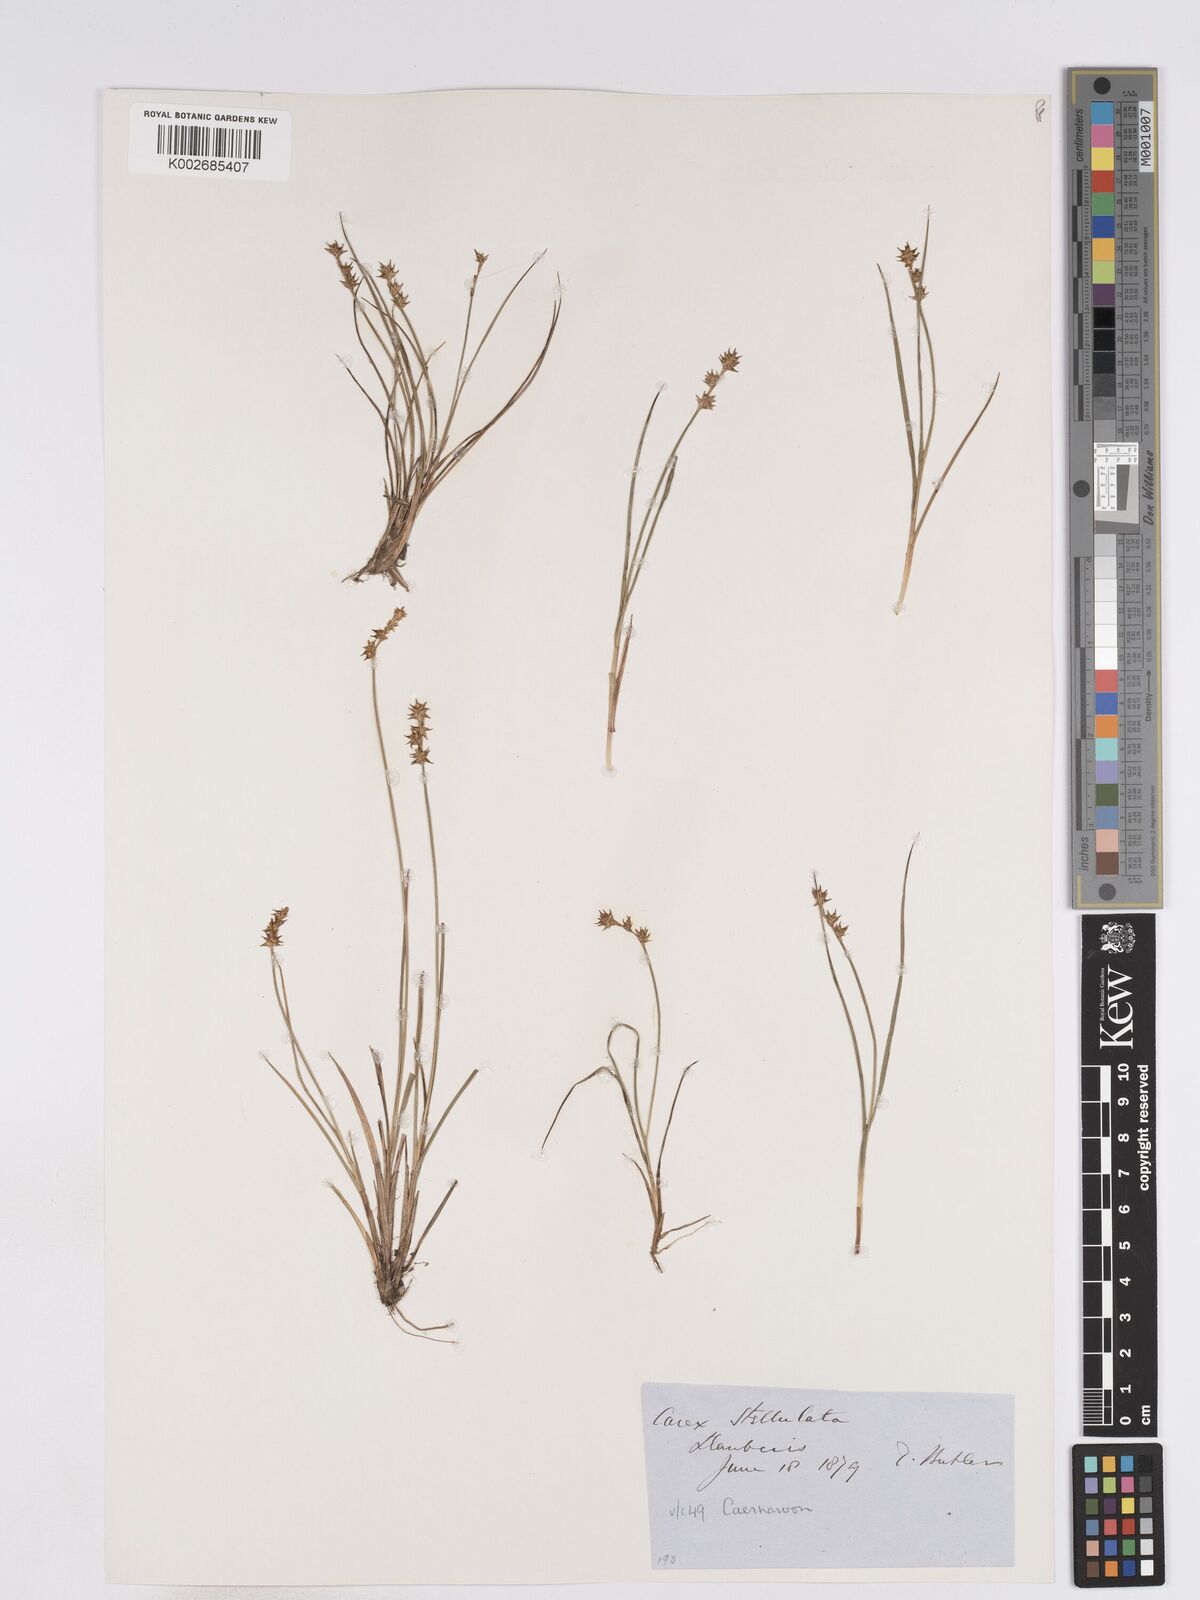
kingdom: Plantae
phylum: Tracheophyta
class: Liliopsida
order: Poales
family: Cyperaceae
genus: Carex
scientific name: Carex echinata
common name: Star sedge
